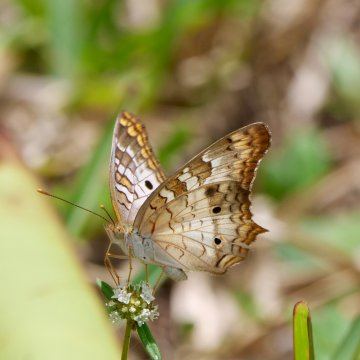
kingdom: Animalia
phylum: Arthropoda
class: Insecta
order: Lepidoptera
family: Nymphalidae
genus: Anartia
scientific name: Anartia jatrophae
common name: White Peacock
